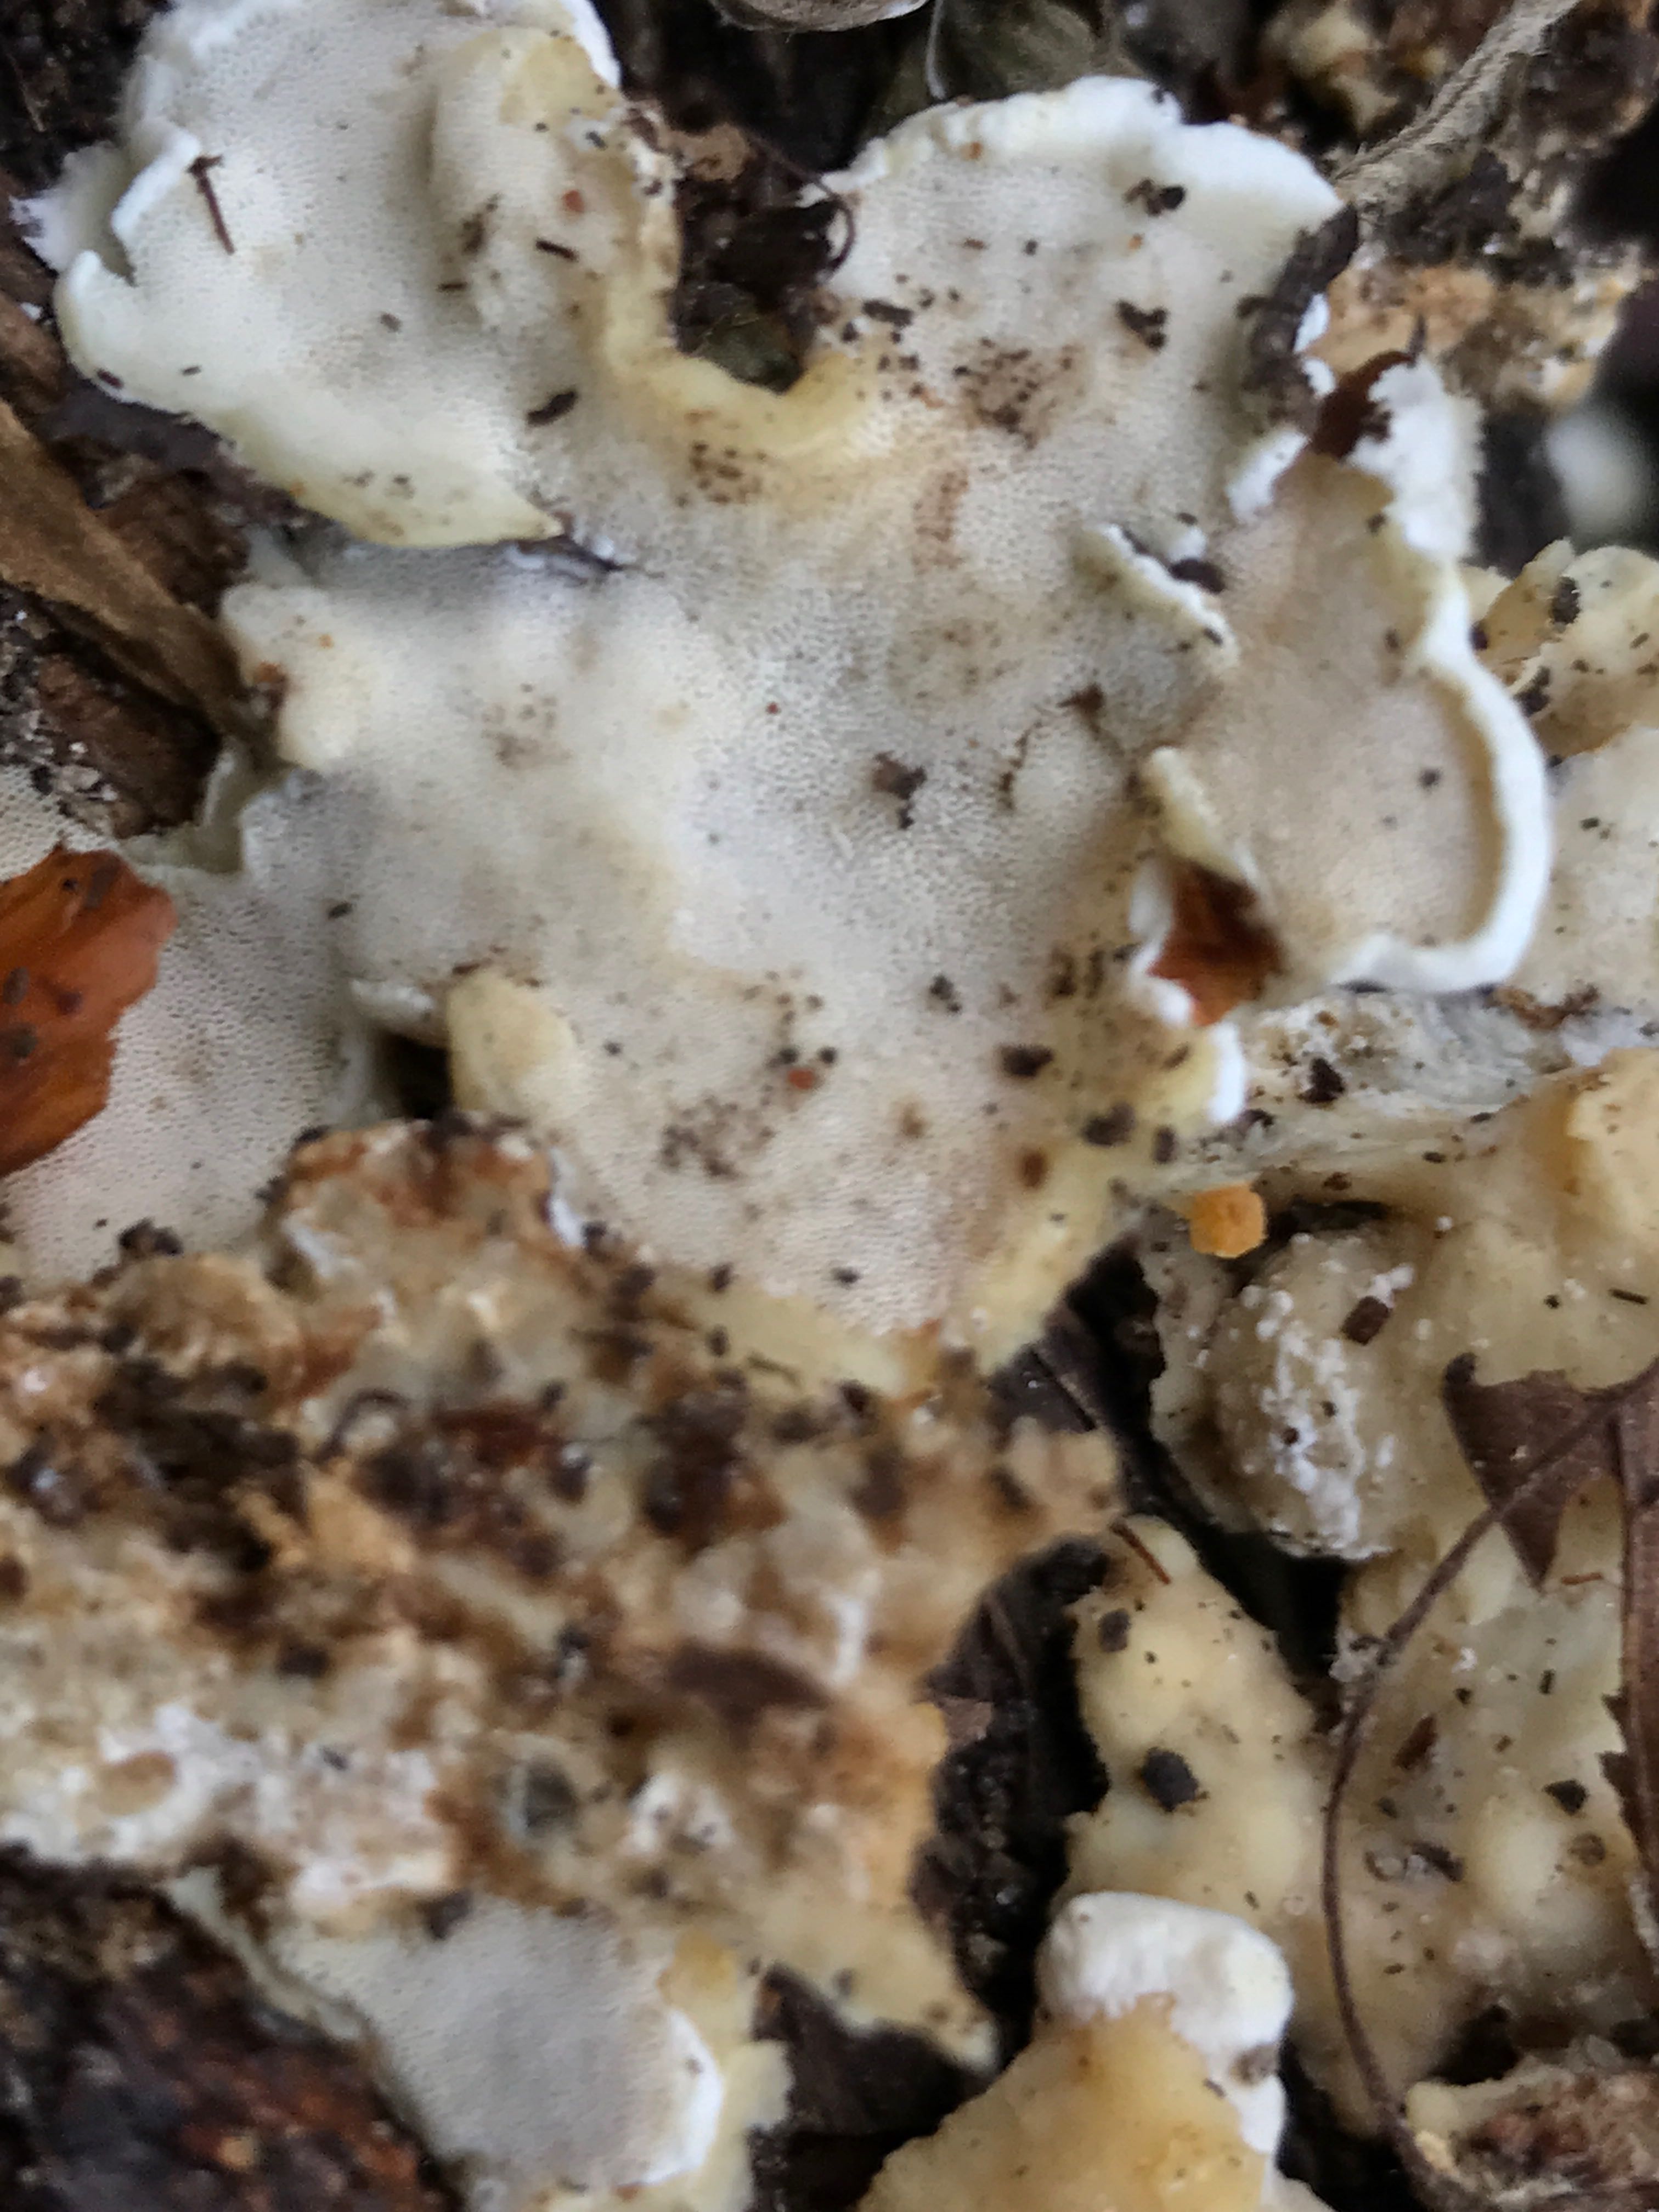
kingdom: Fungi
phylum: Basidiomycota
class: Agaricomycetes
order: Polyporales
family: Phanerochaetaceae
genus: Bjerkandera
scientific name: Bjerkandera fumosa
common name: grågul sodporesvamp
